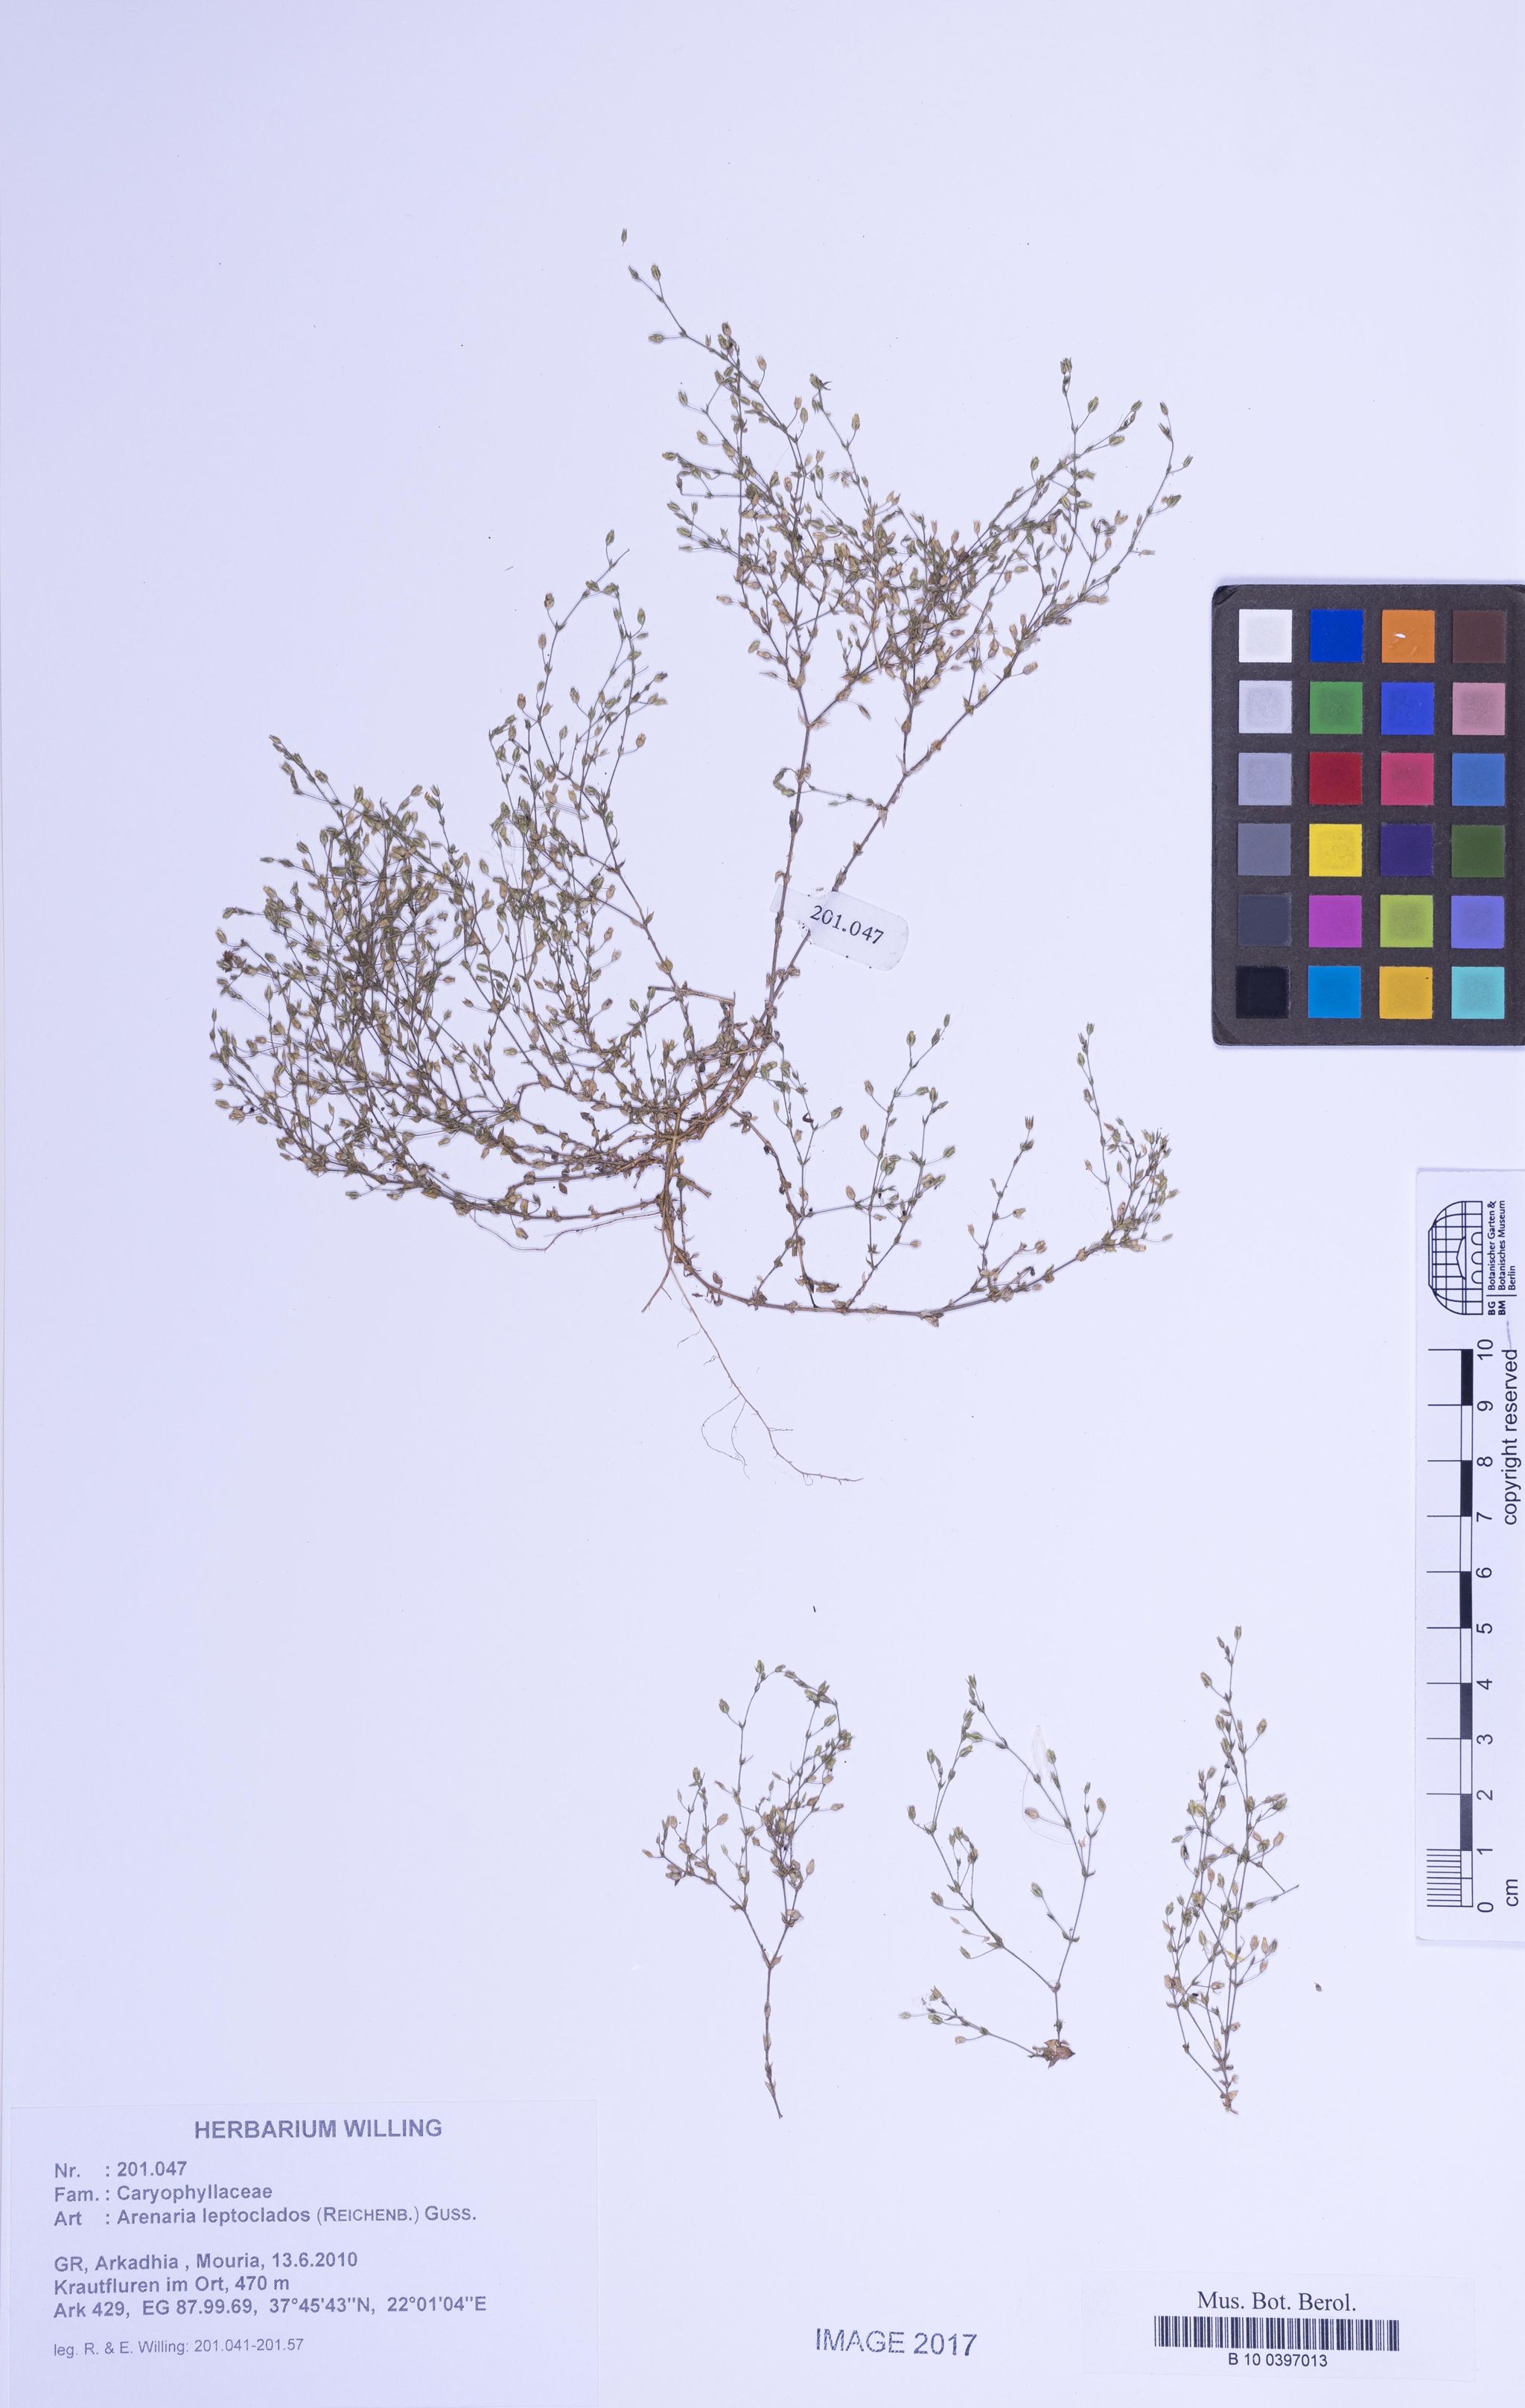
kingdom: Plantae
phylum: Tracheophyta
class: Magnoliopsida
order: Caryophyllales
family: Caryophyllaceae
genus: Arenaria
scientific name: Arenaria leptoclados
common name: Thyme-leaved sandwort
